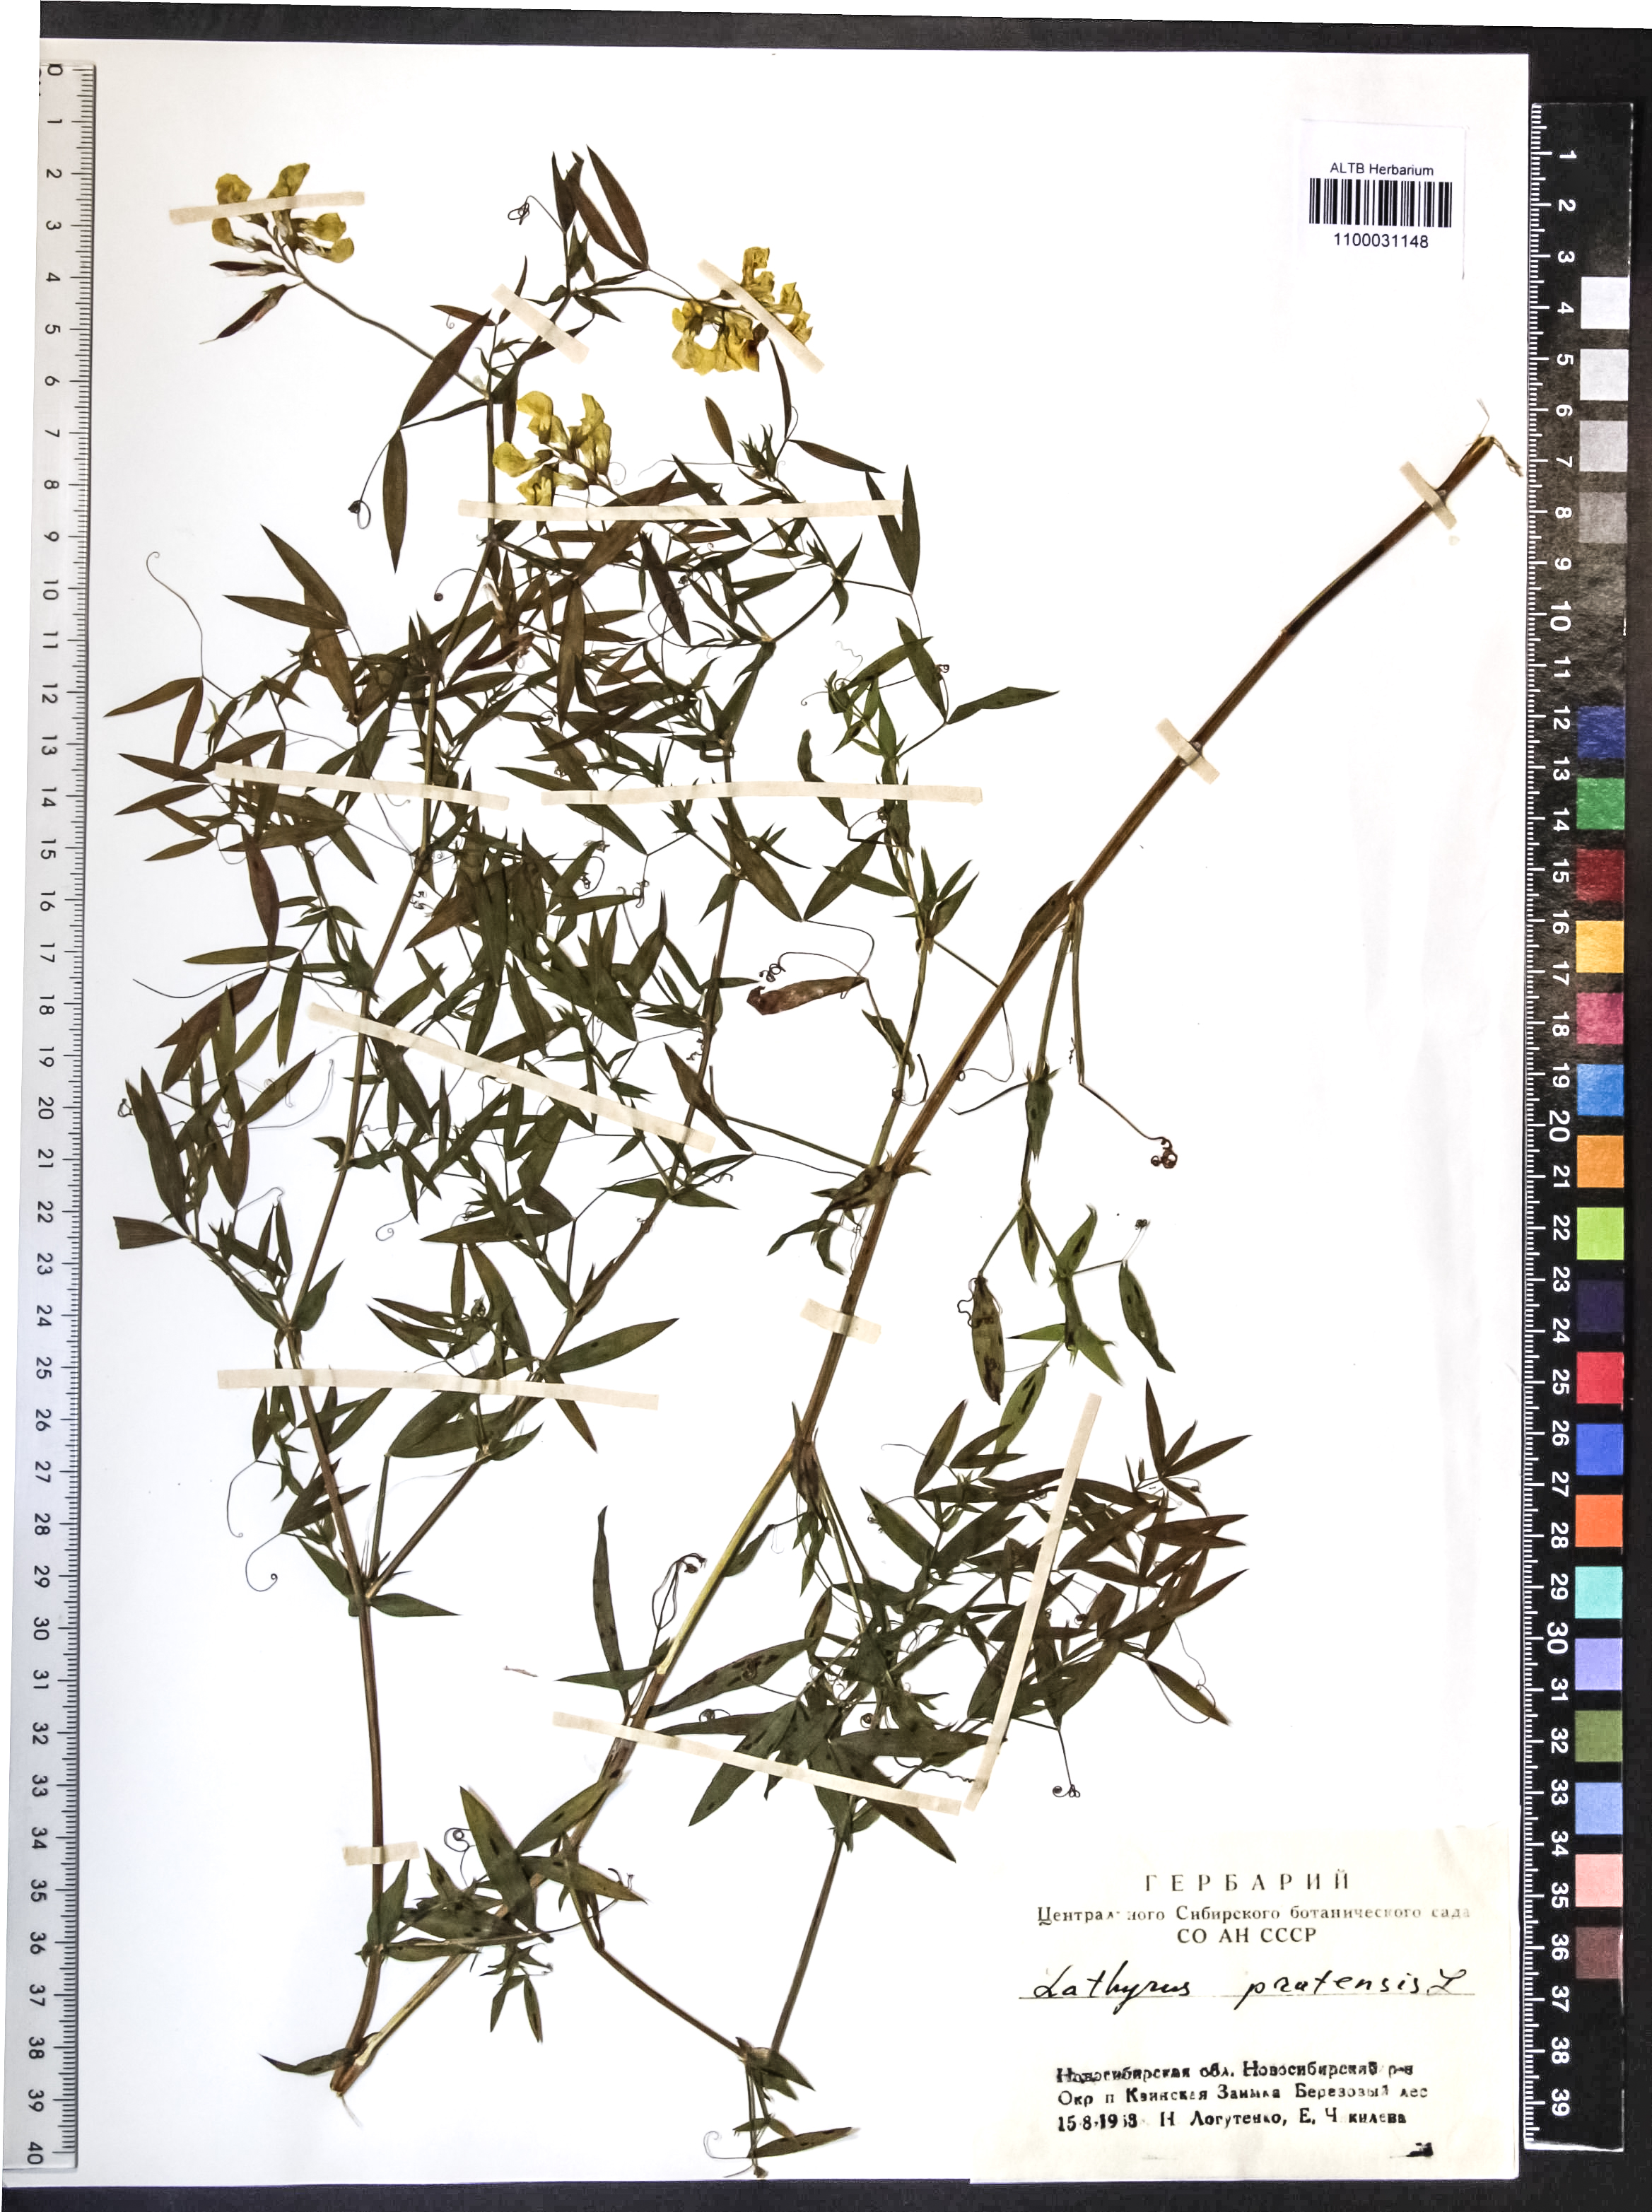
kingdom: Plantae
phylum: Tracheophyta
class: Magnoliopsida
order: Fabales
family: Fabaceae
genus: Lathyrus
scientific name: Lathyrus pratensis
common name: Meadow vetchling
